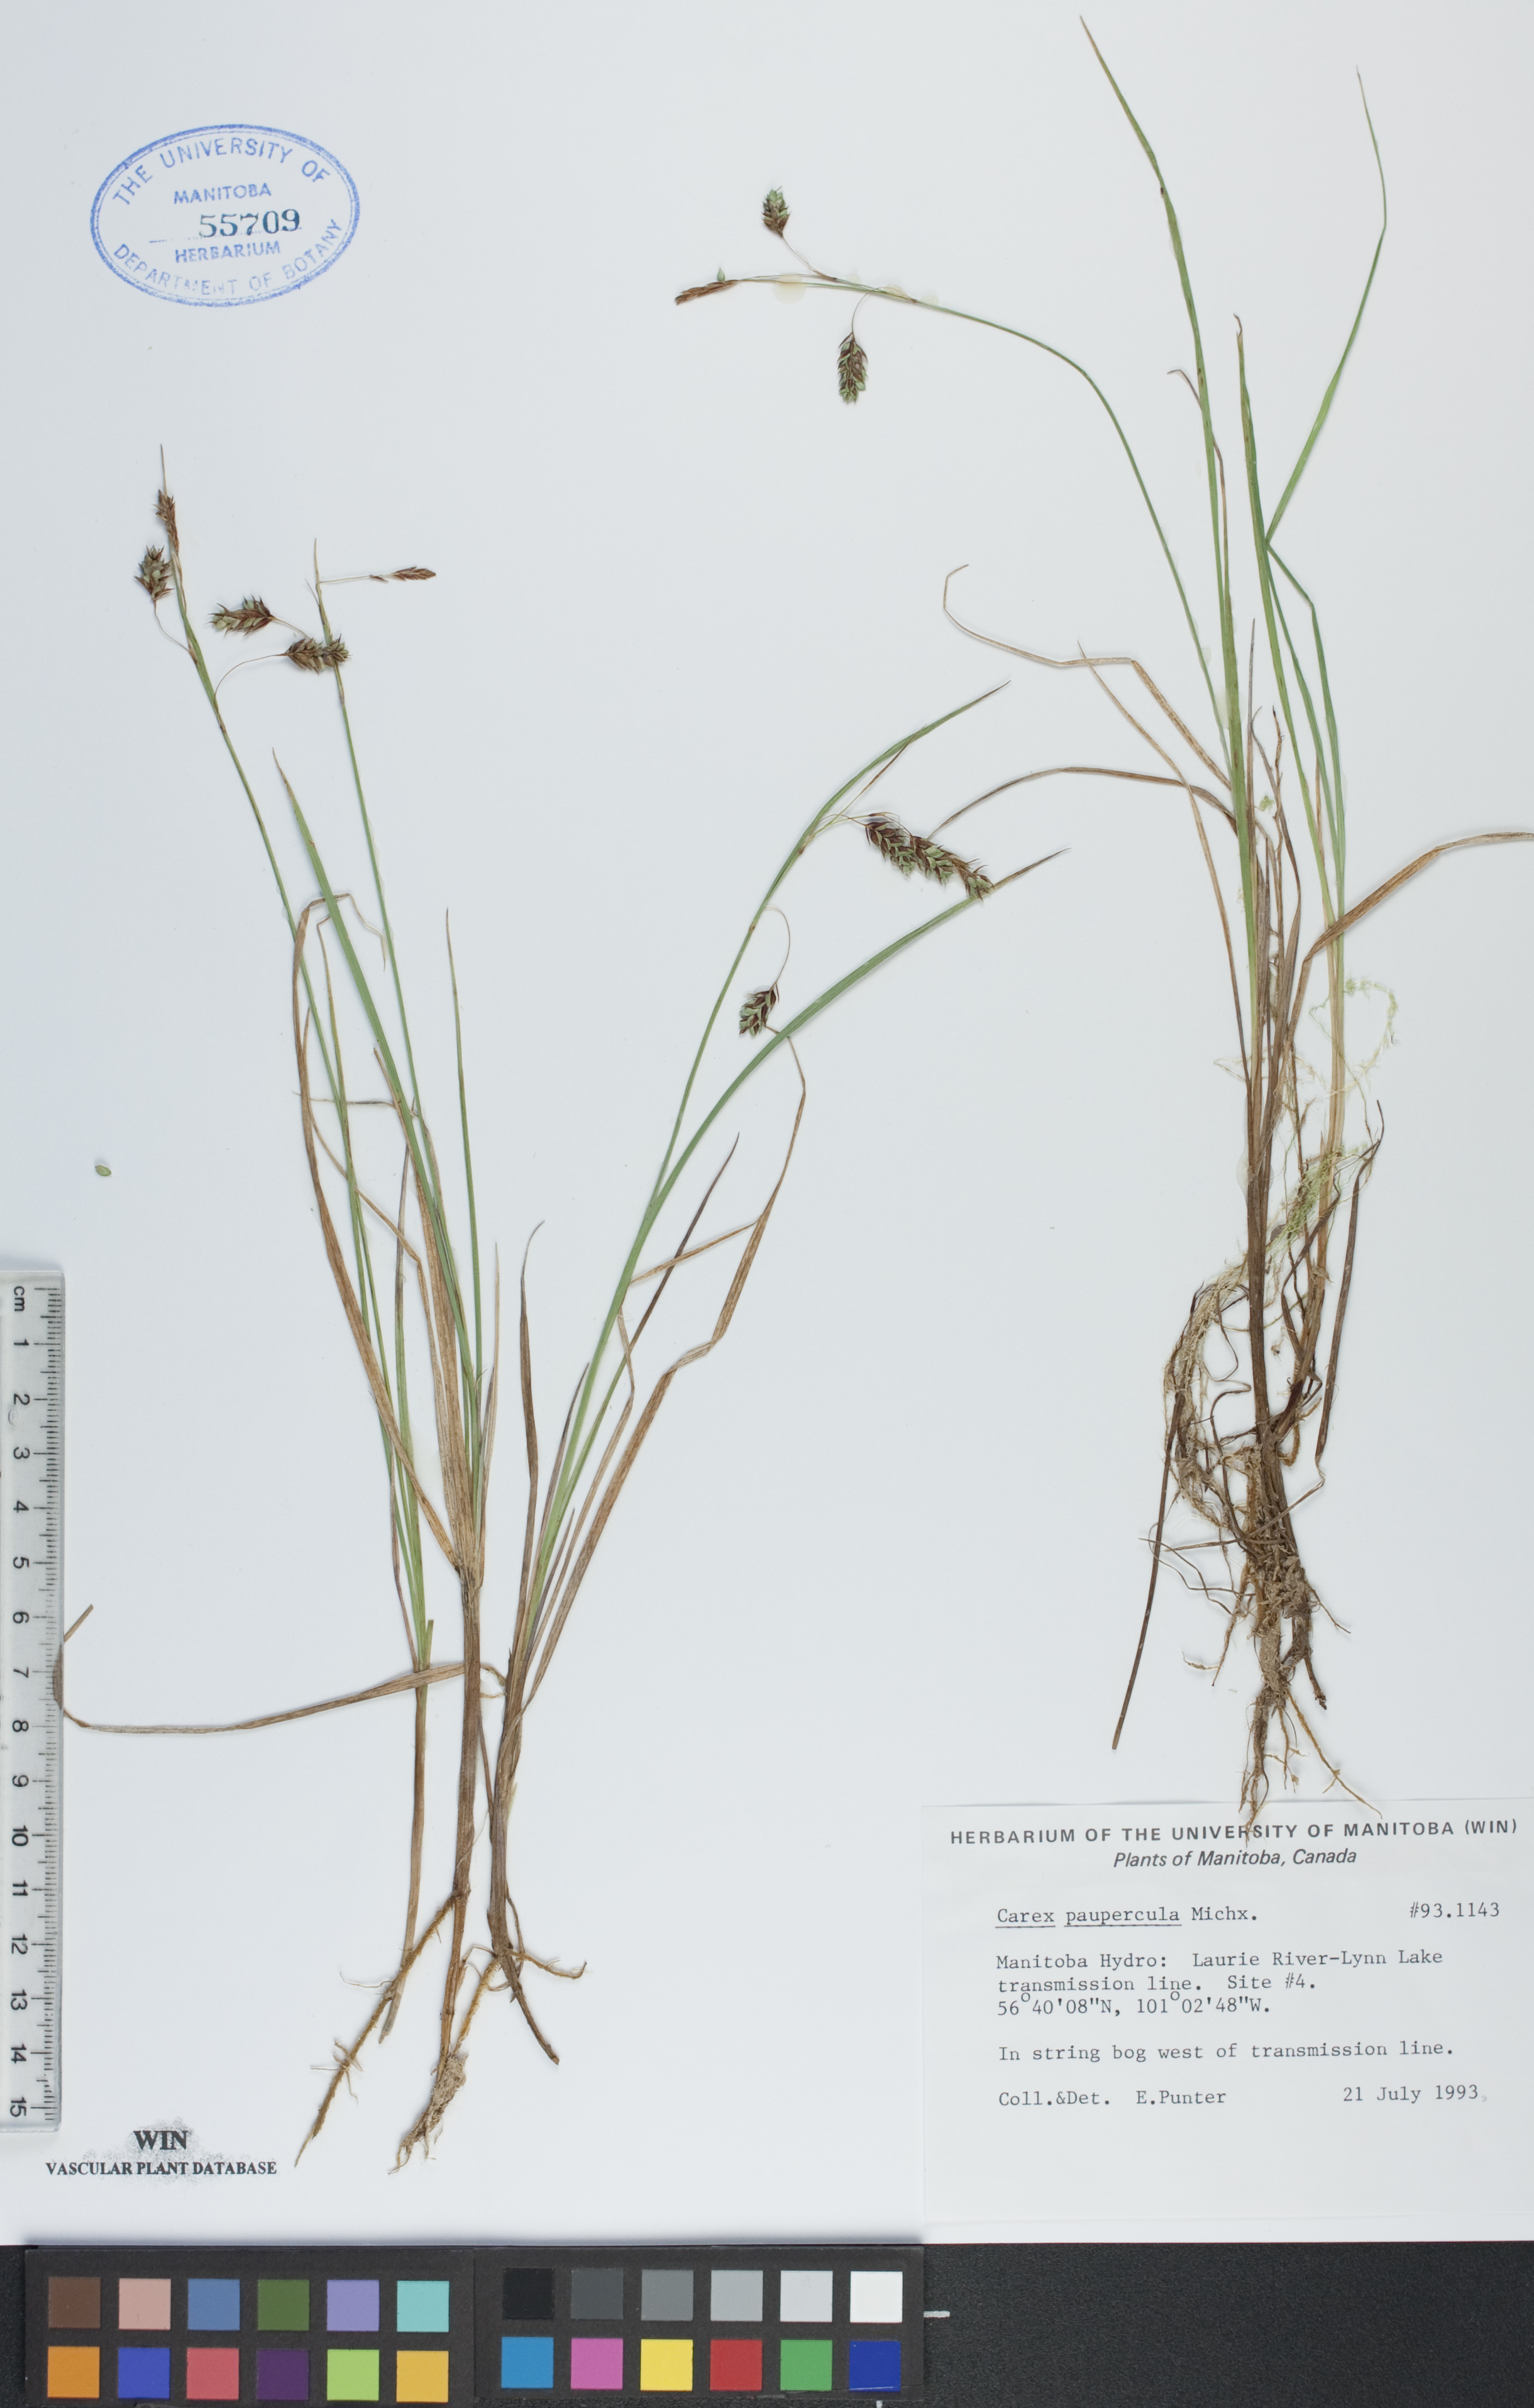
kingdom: Plantae
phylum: Tracheophyta
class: Liliopsida
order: Poales
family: Cyperaceae
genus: Carex
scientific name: Carex magellanica
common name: Bog sedge
